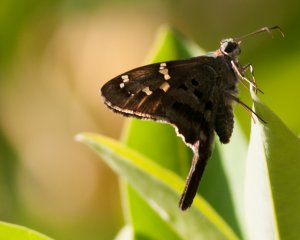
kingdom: Animalia
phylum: Arthropoda
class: Insecta
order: Lepidoptera
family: Hesperiidae
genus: Urbanus
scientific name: Urbanus proteus
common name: Long-tailed Skipper
